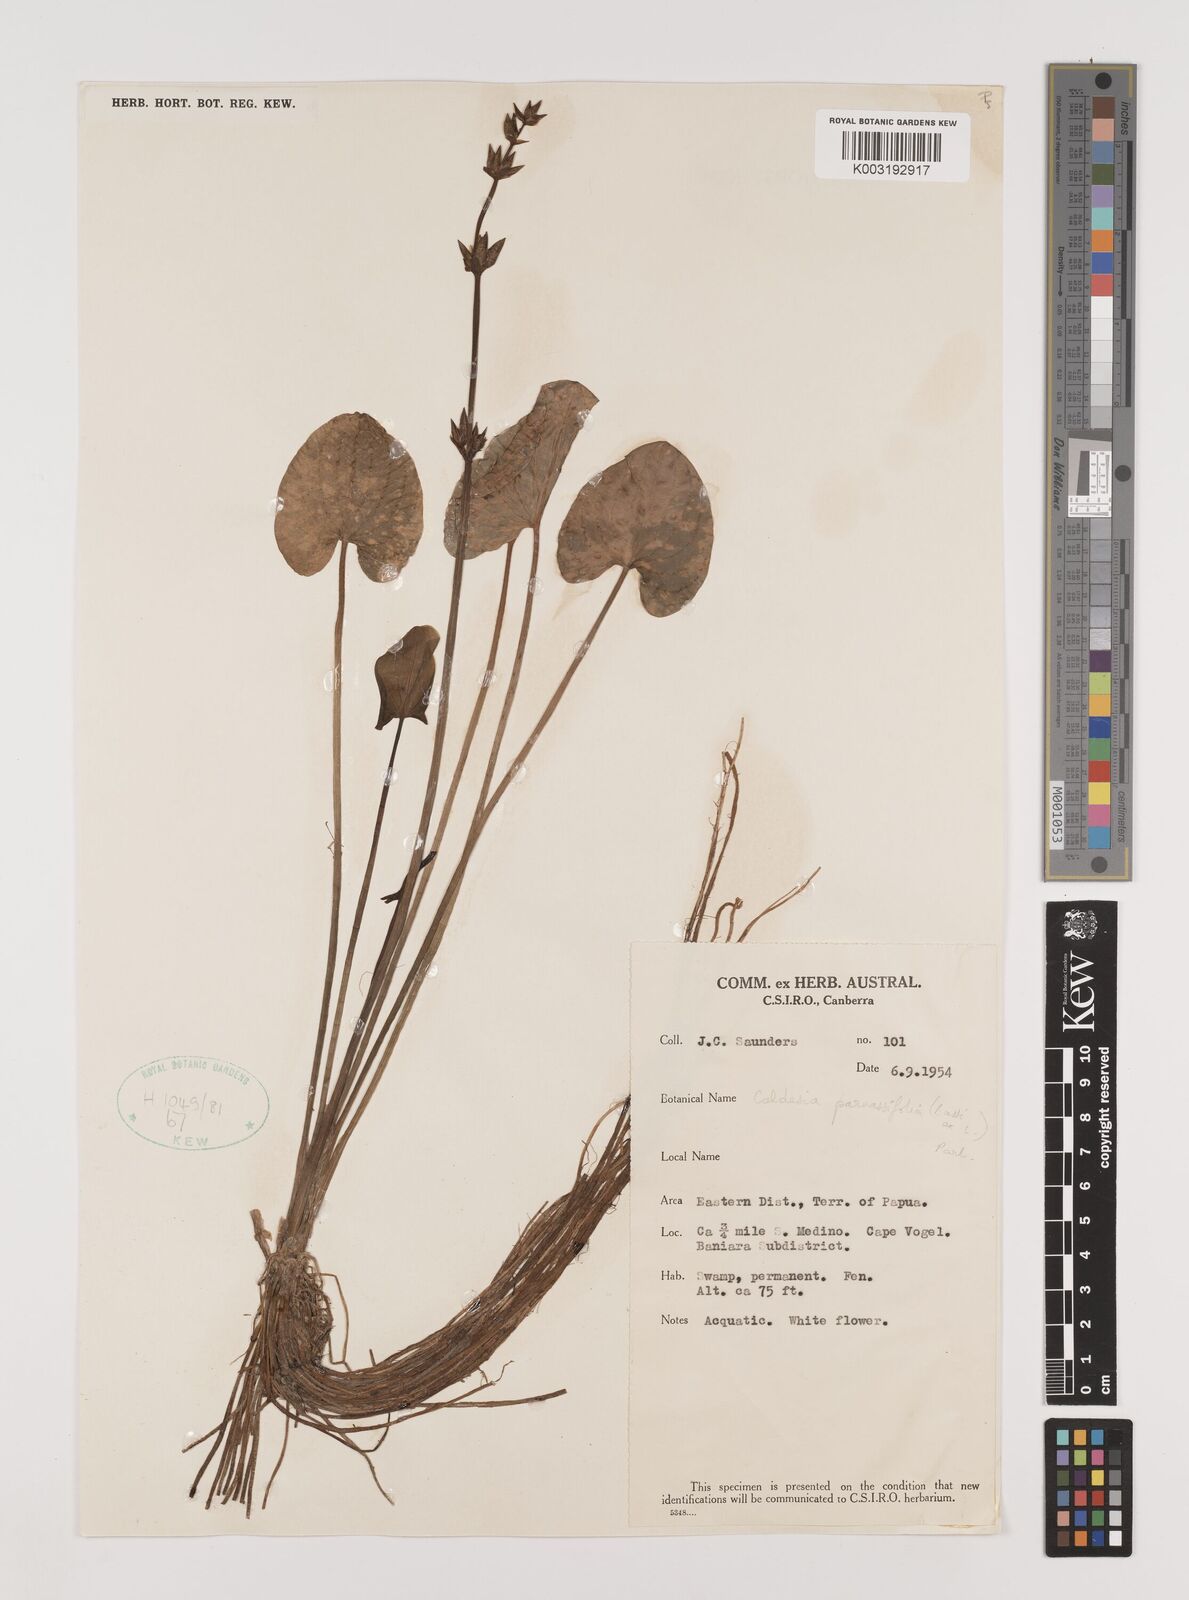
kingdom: Plantae
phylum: Tracheophyta
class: Liliopsida
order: Alismatales
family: Alismataceae
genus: Caldesia
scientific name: Caldesia parnassifolia
